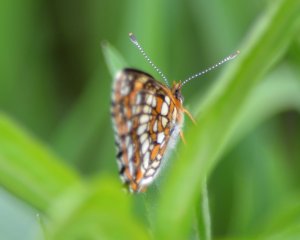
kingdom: Animalia
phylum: Arthropoda
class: Insecta
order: Lepidoptera
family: Nymphalidae
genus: Chlosyne
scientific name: Chlosyne harrisii
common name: Harris's Checkerspot
